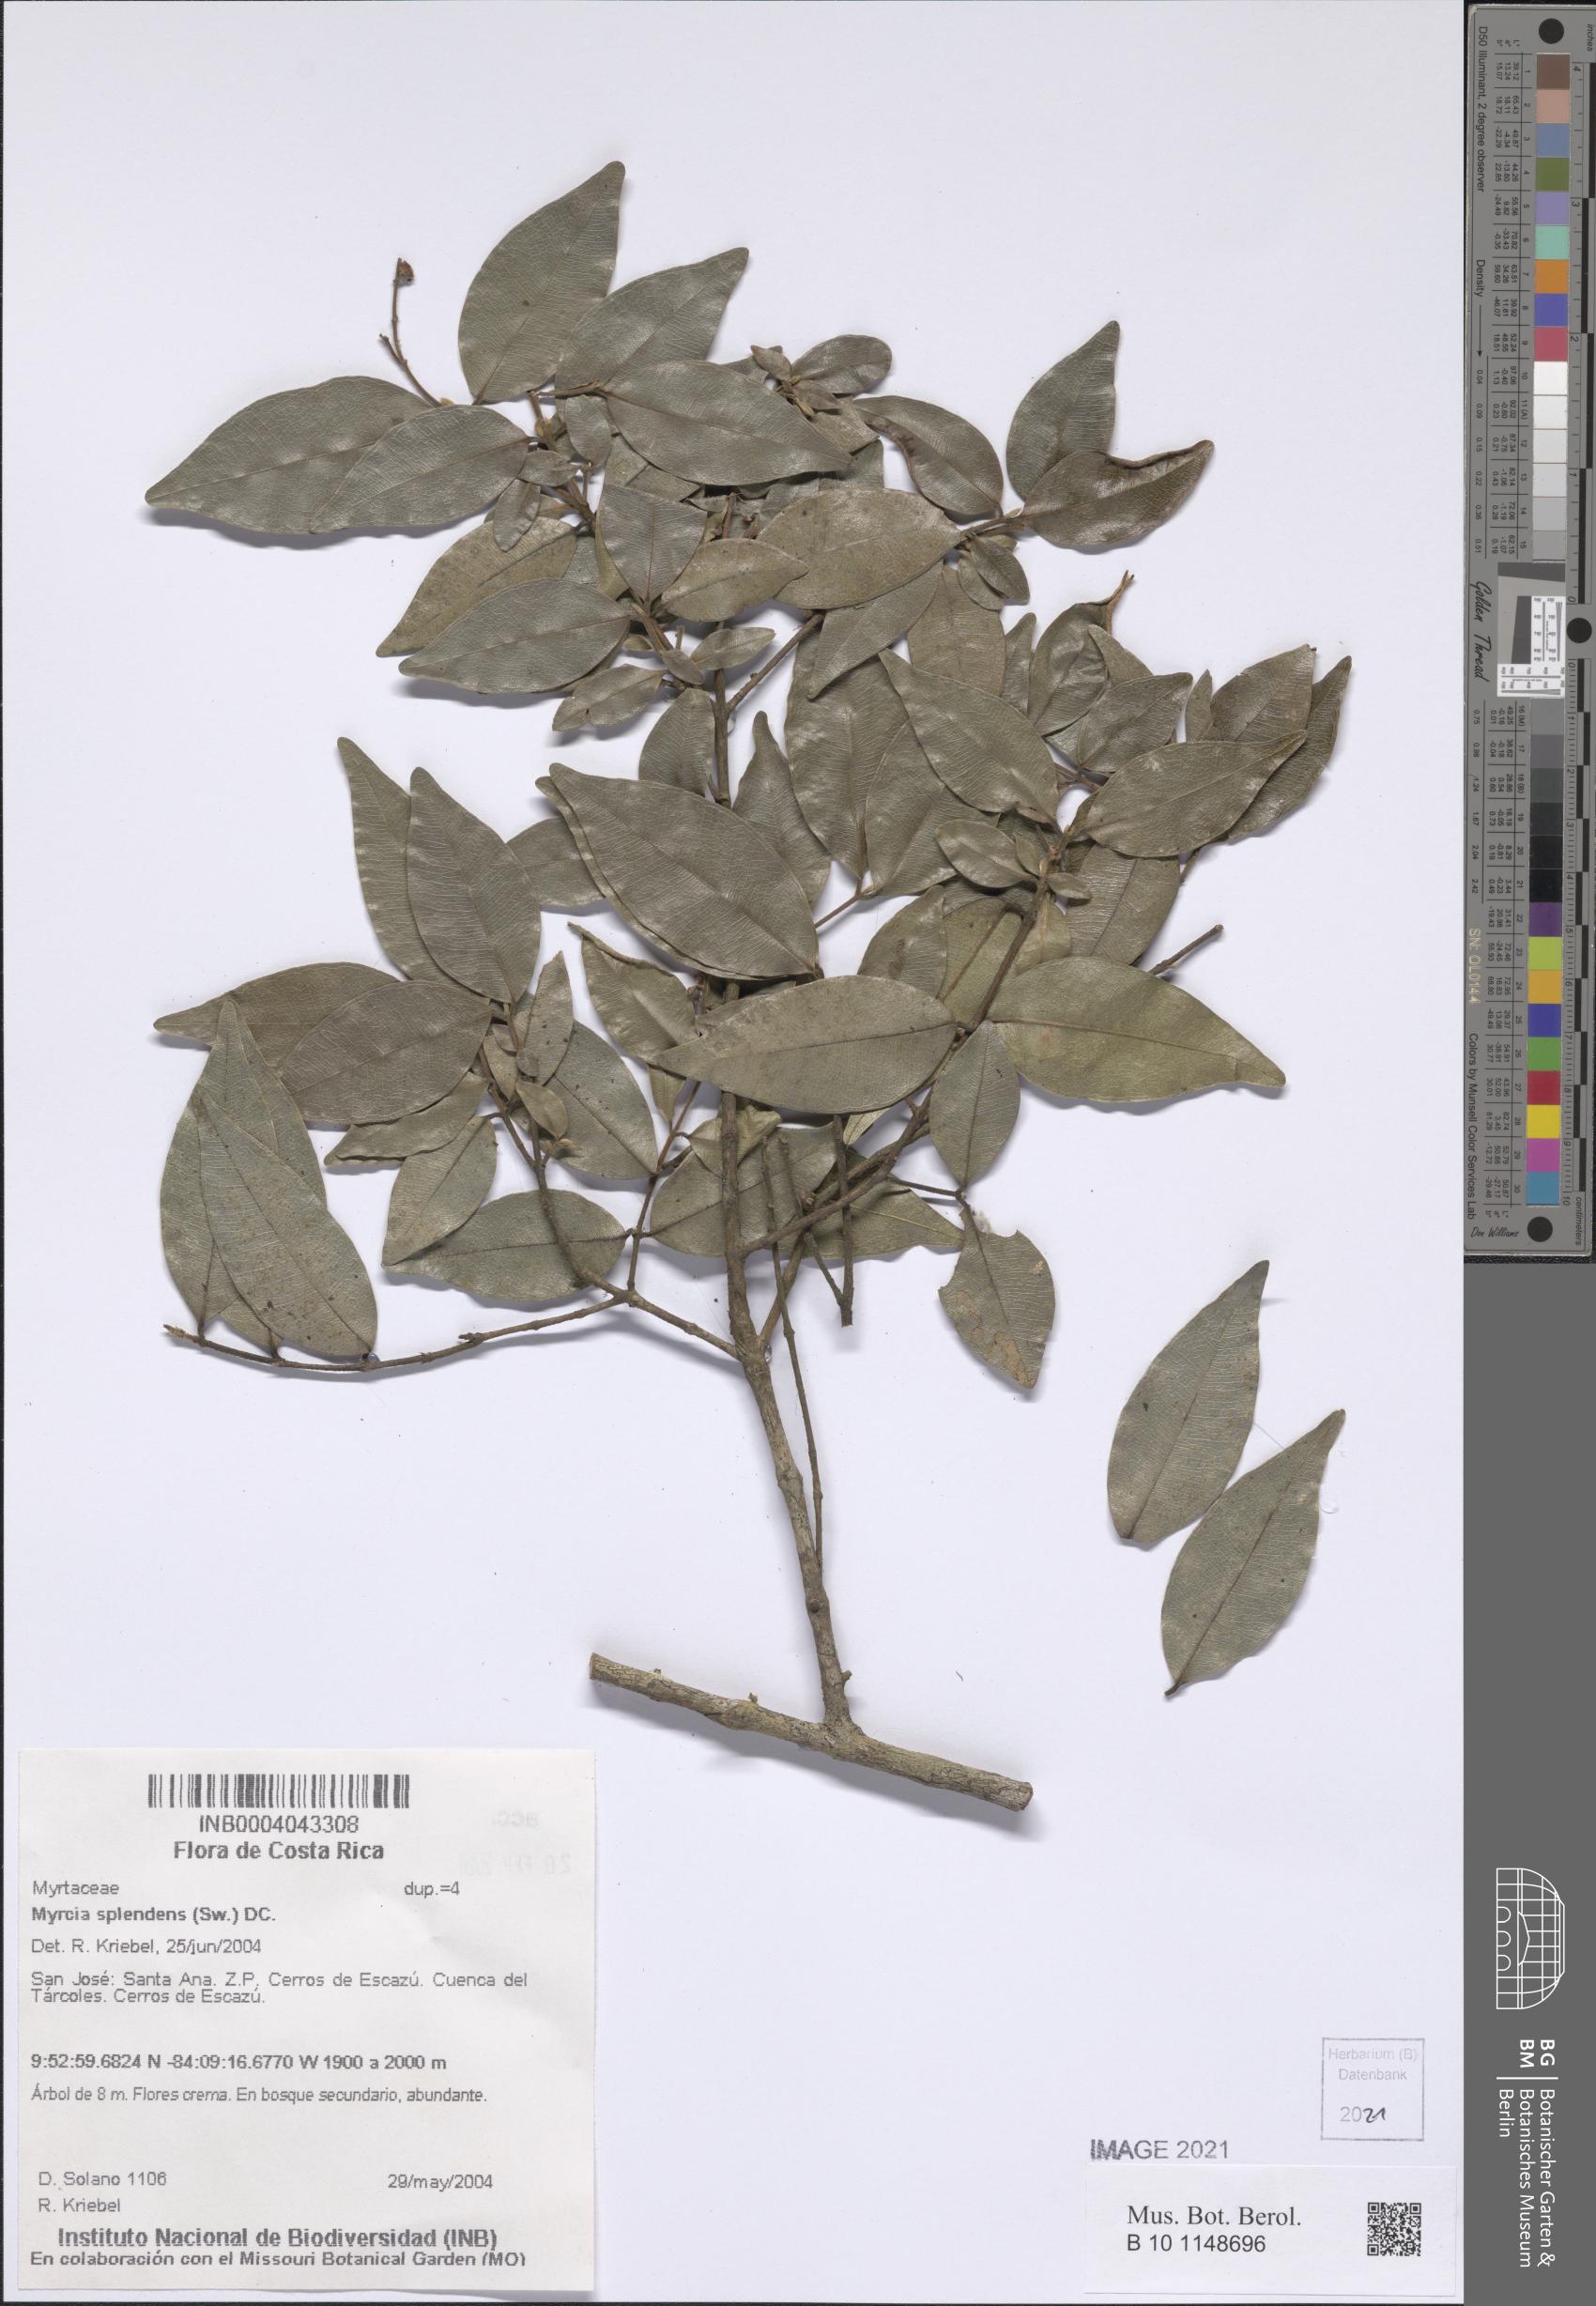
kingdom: Plantae
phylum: Tracheophyta
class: Magnoliopsida
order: Myrtales
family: Myrtaceae
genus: Myrcia
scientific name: Myrcia splendens
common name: Surinam cherry
